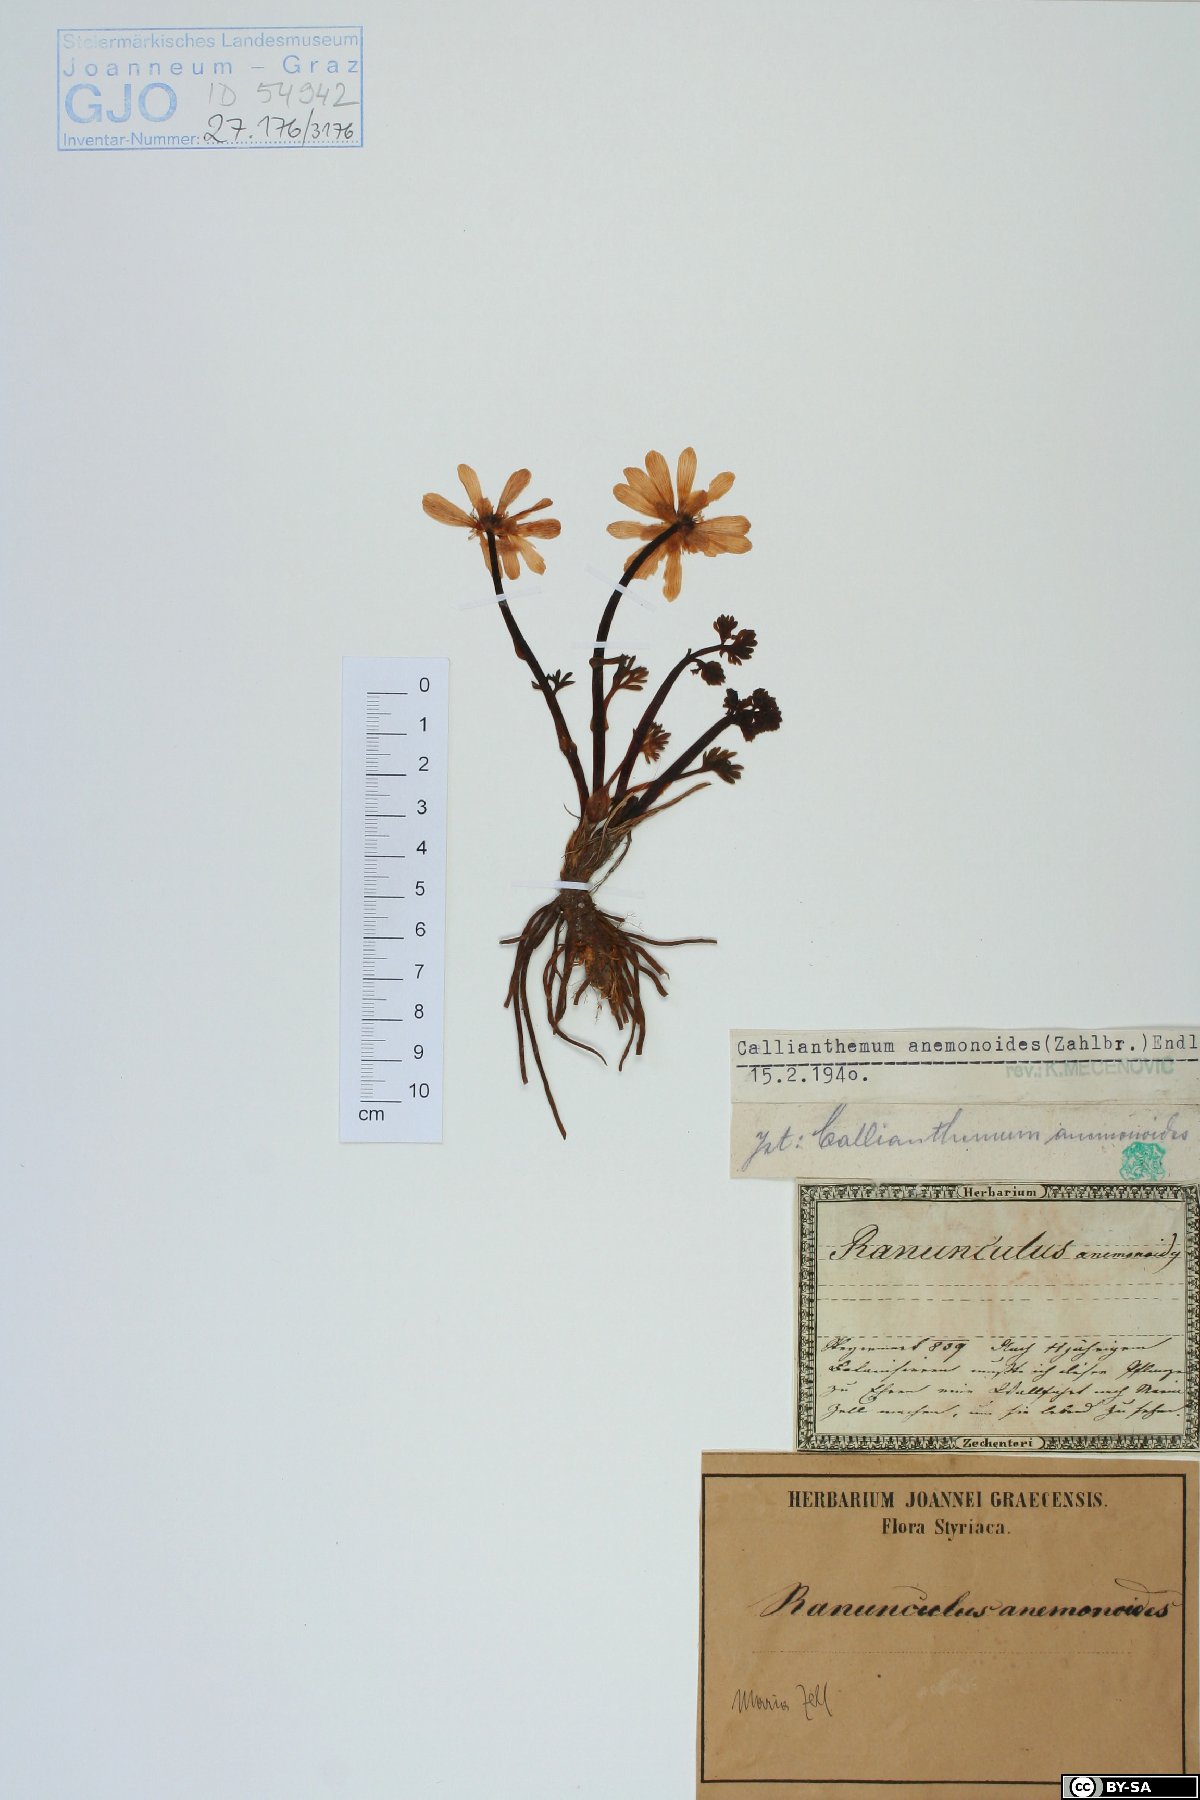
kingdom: Plantae
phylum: Tracheophyta
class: Magnoliopsida
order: Ranunculales
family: Ranunculaceae
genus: Callianthemum
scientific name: Callianthemum anemonoides
